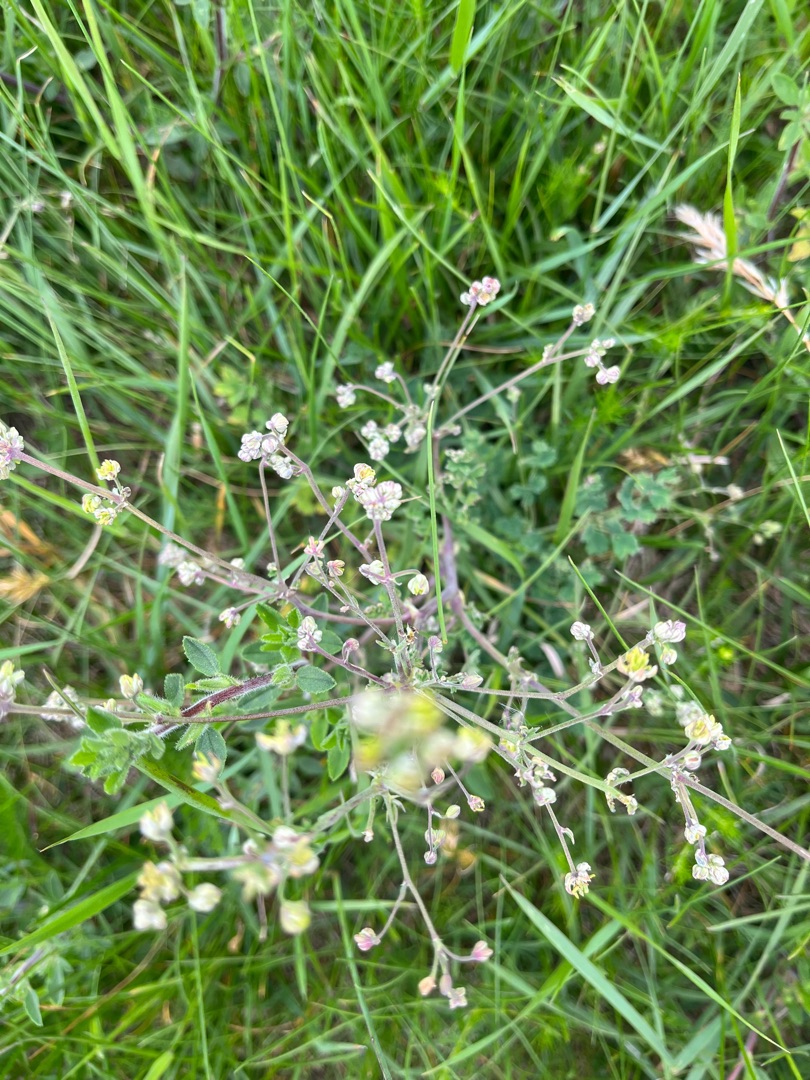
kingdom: Plantae
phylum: Tracheophyta
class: Magnoliopsida
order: Ranunculales
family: Ranunculaceae
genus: Thalictrum
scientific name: Thalictrum minus
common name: Liden frøstjerne
